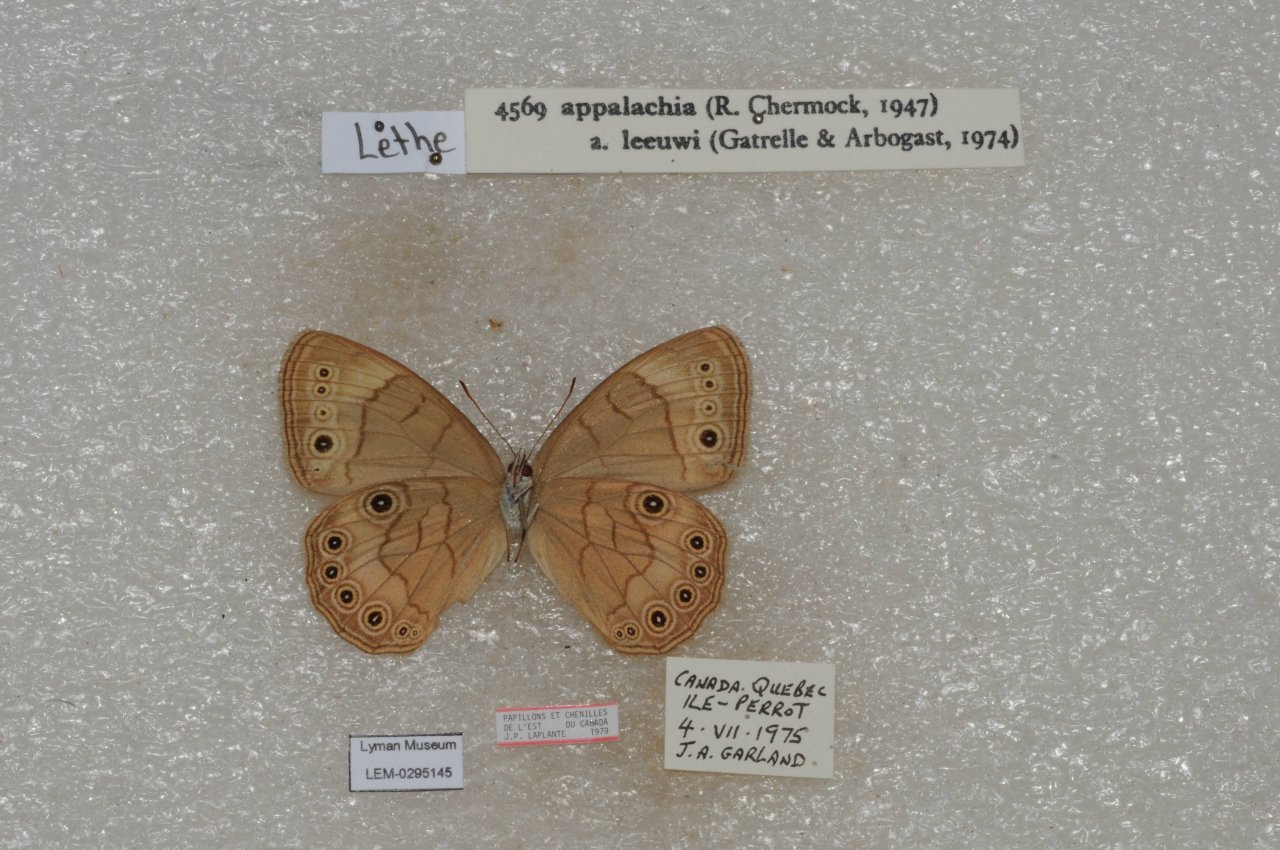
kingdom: Animalia
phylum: Arthropoda
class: Insecta
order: Lepidoptera
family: Nymphalidae
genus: Lethe
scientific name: Lethe eurydice
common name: Appalachian Eyed Brown
